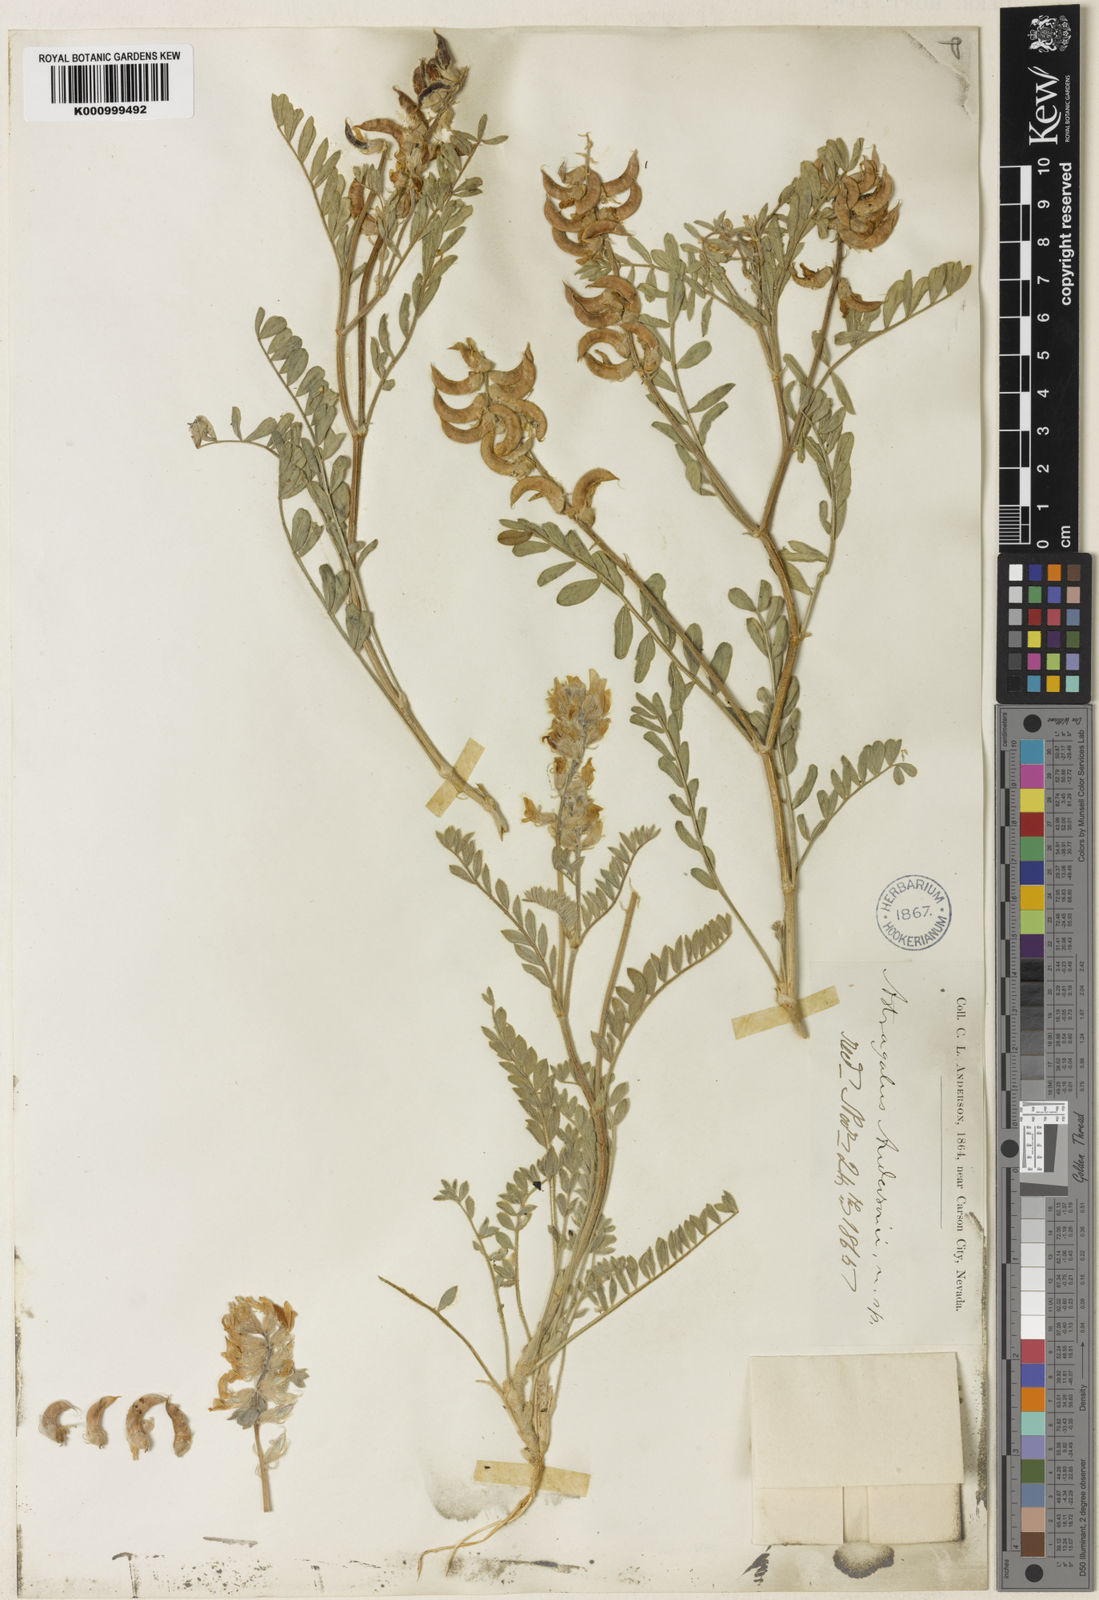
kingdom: Plantae
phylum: Tracheophyta
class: Magnoliopsida
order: Fabales
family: Fabaceae
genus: Astragalus
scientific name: Astragalus andersonii
